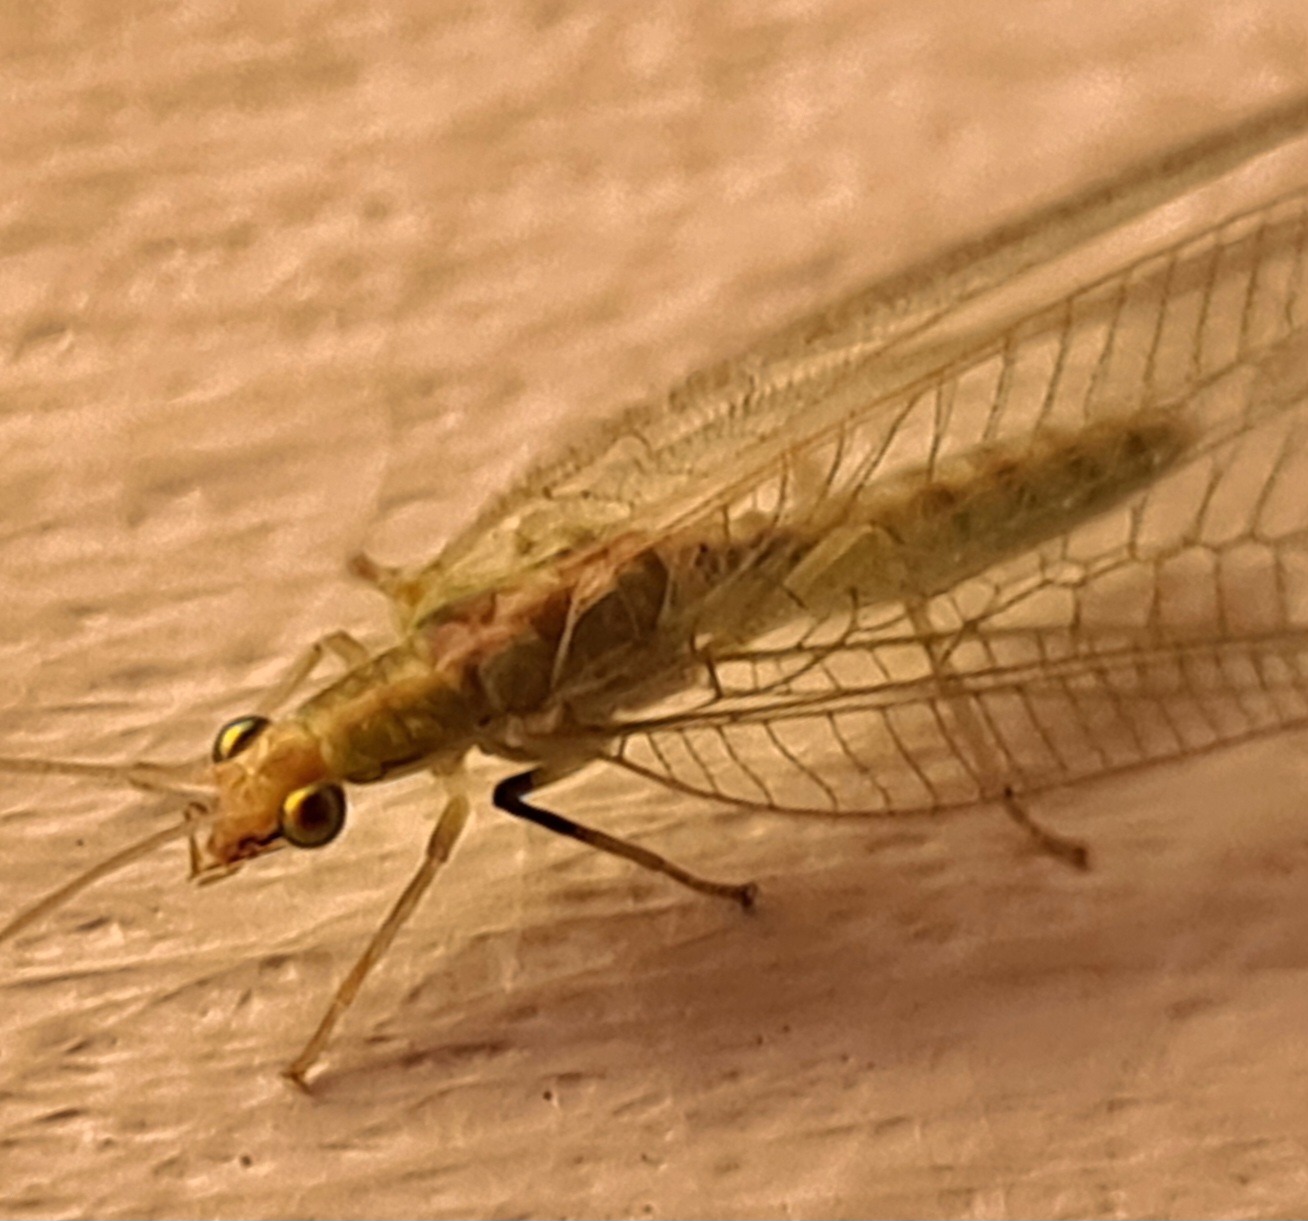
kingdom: Animalia
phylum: Arthropoda
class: Insecta
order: Neuroptera
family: Chrysopidae
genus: Chrysoperla
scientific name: Chrysoperla carnea
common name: Almindelig guldøje
